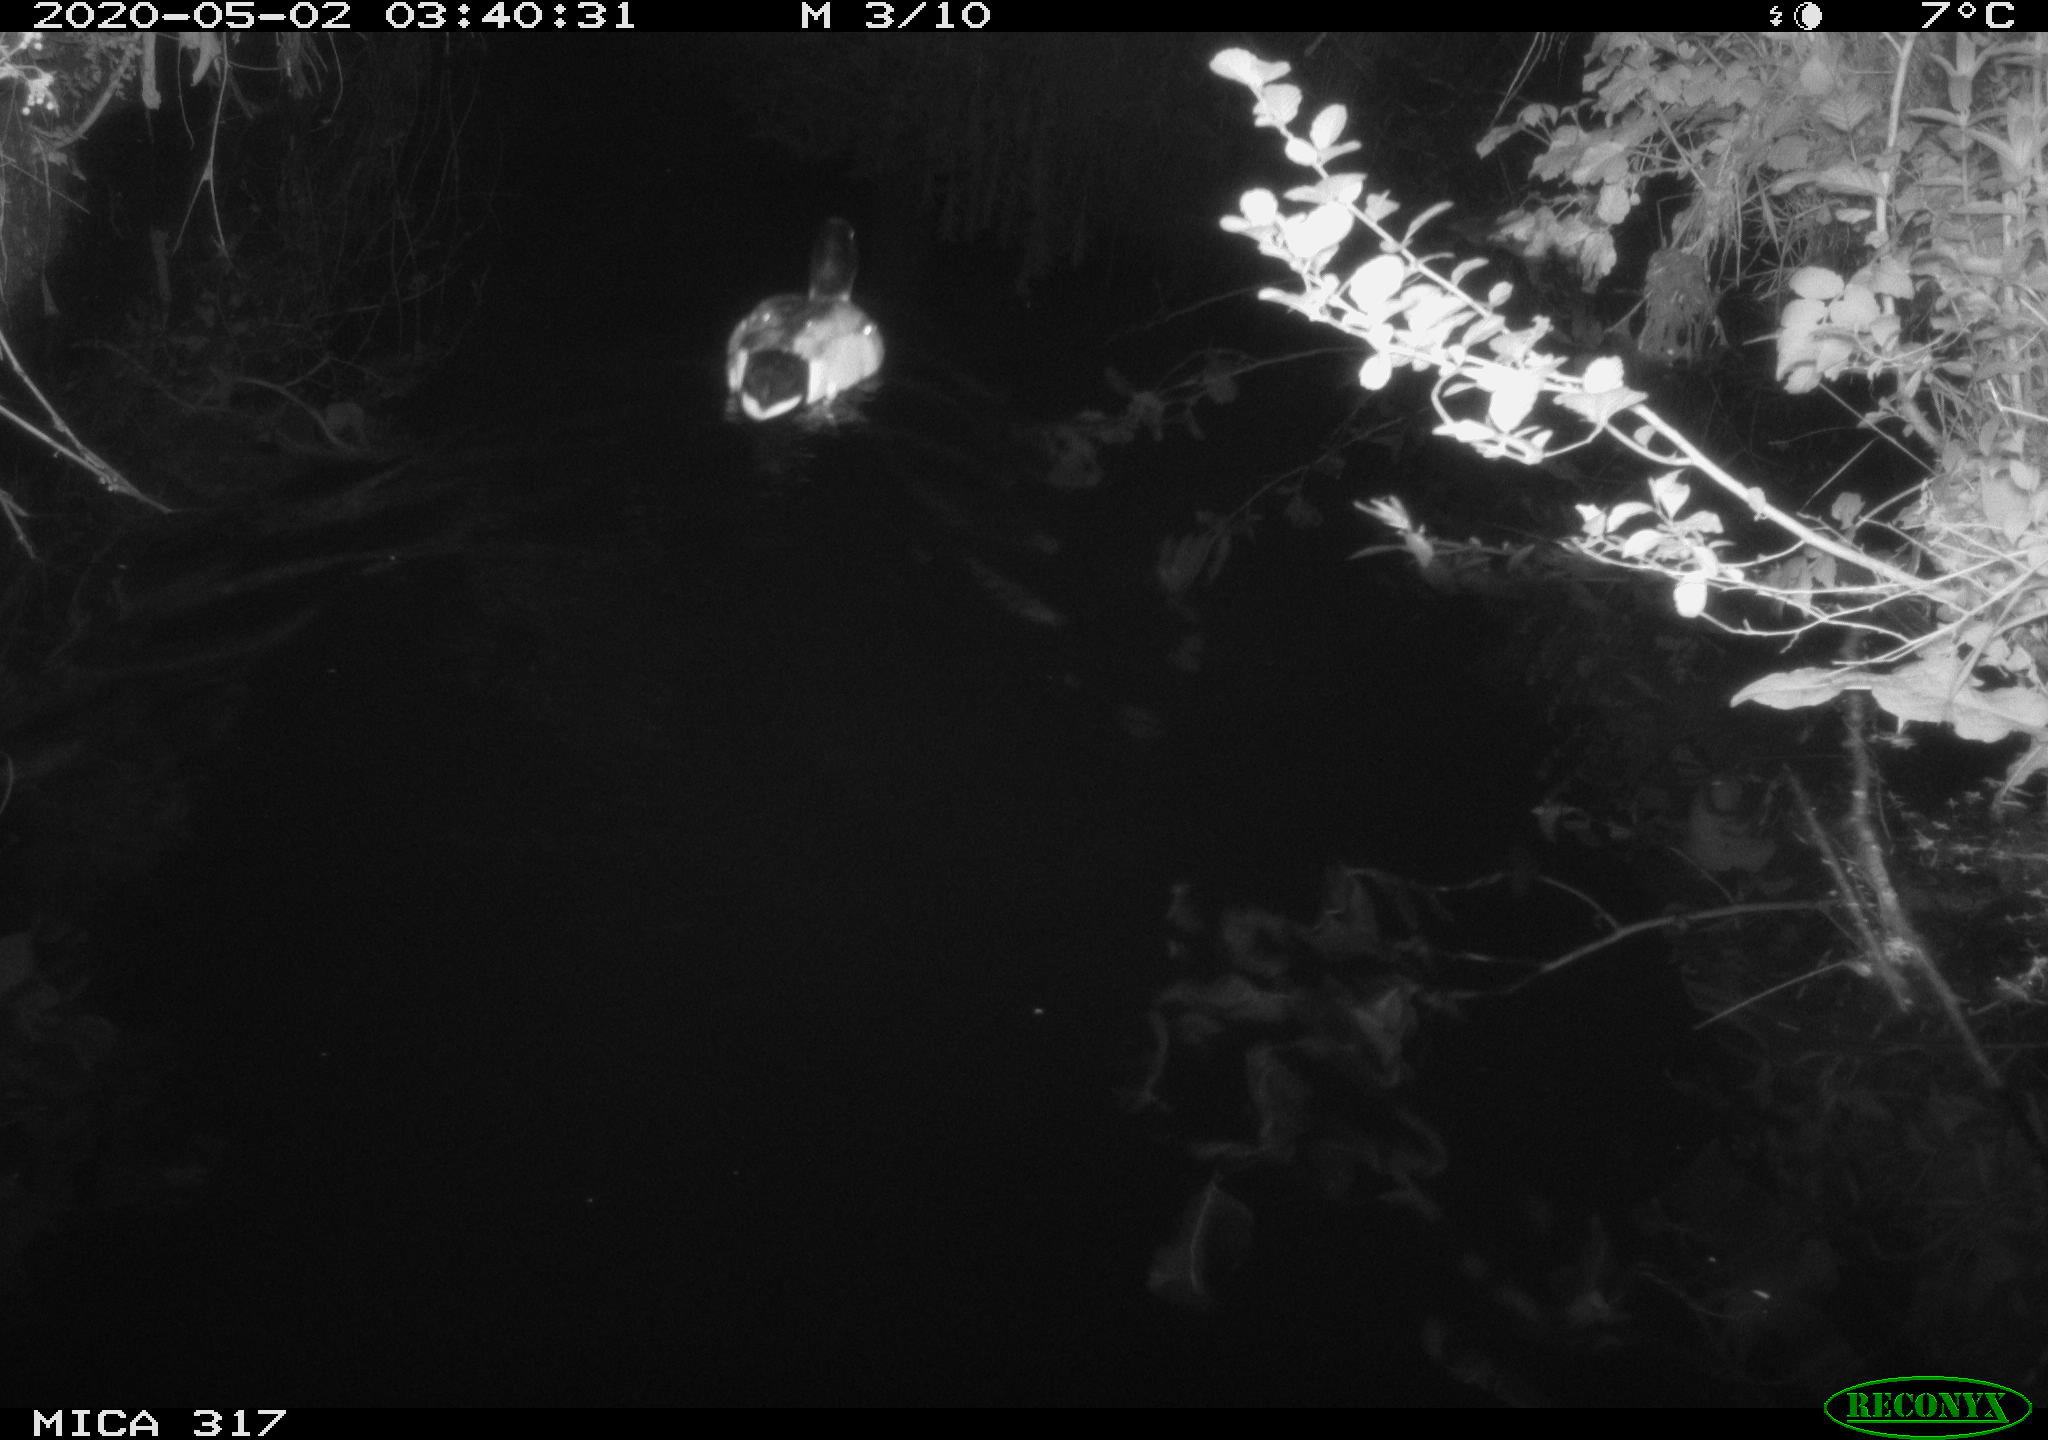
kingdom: Animalia
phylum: Chordata
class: Aves
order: Anseriformes
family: Anatidae
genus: Anas
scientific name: Anas platyrhynchos
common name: Mallard
